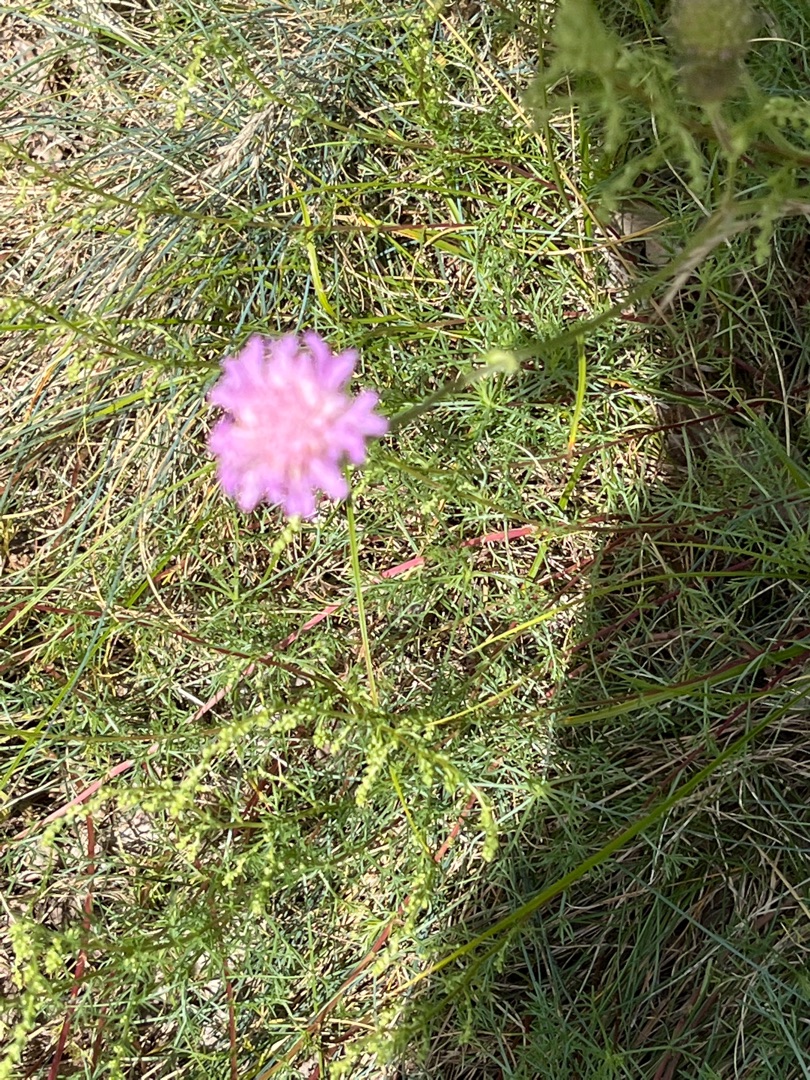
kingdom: Plantae
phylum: Tracheophyta
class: Magnoliopsida
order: Dipsacales
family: Caprifoliaceae
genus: Knautia
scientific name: Knautia arvensis
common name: Blåhat
